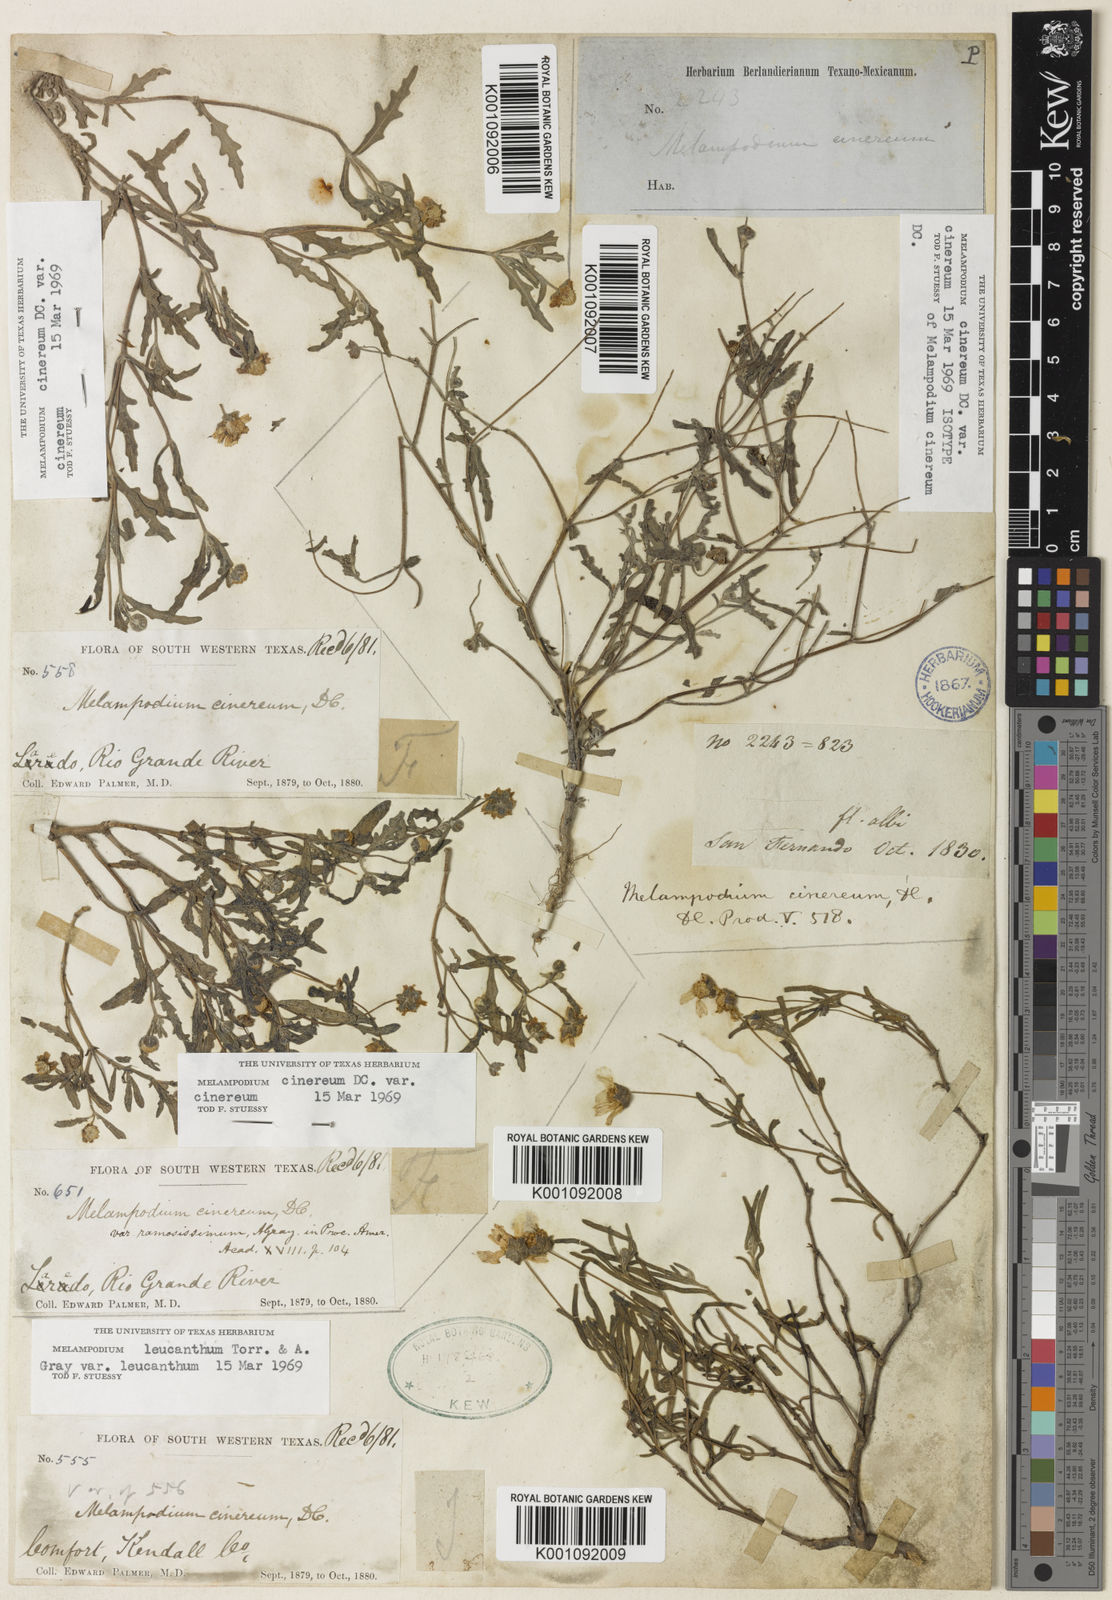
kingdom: Plantae
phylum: Tracheophyta
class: Magnoliopsida
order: Asterales
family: Asteraceae
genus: Melampodium
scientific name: Melampodium cinereum
